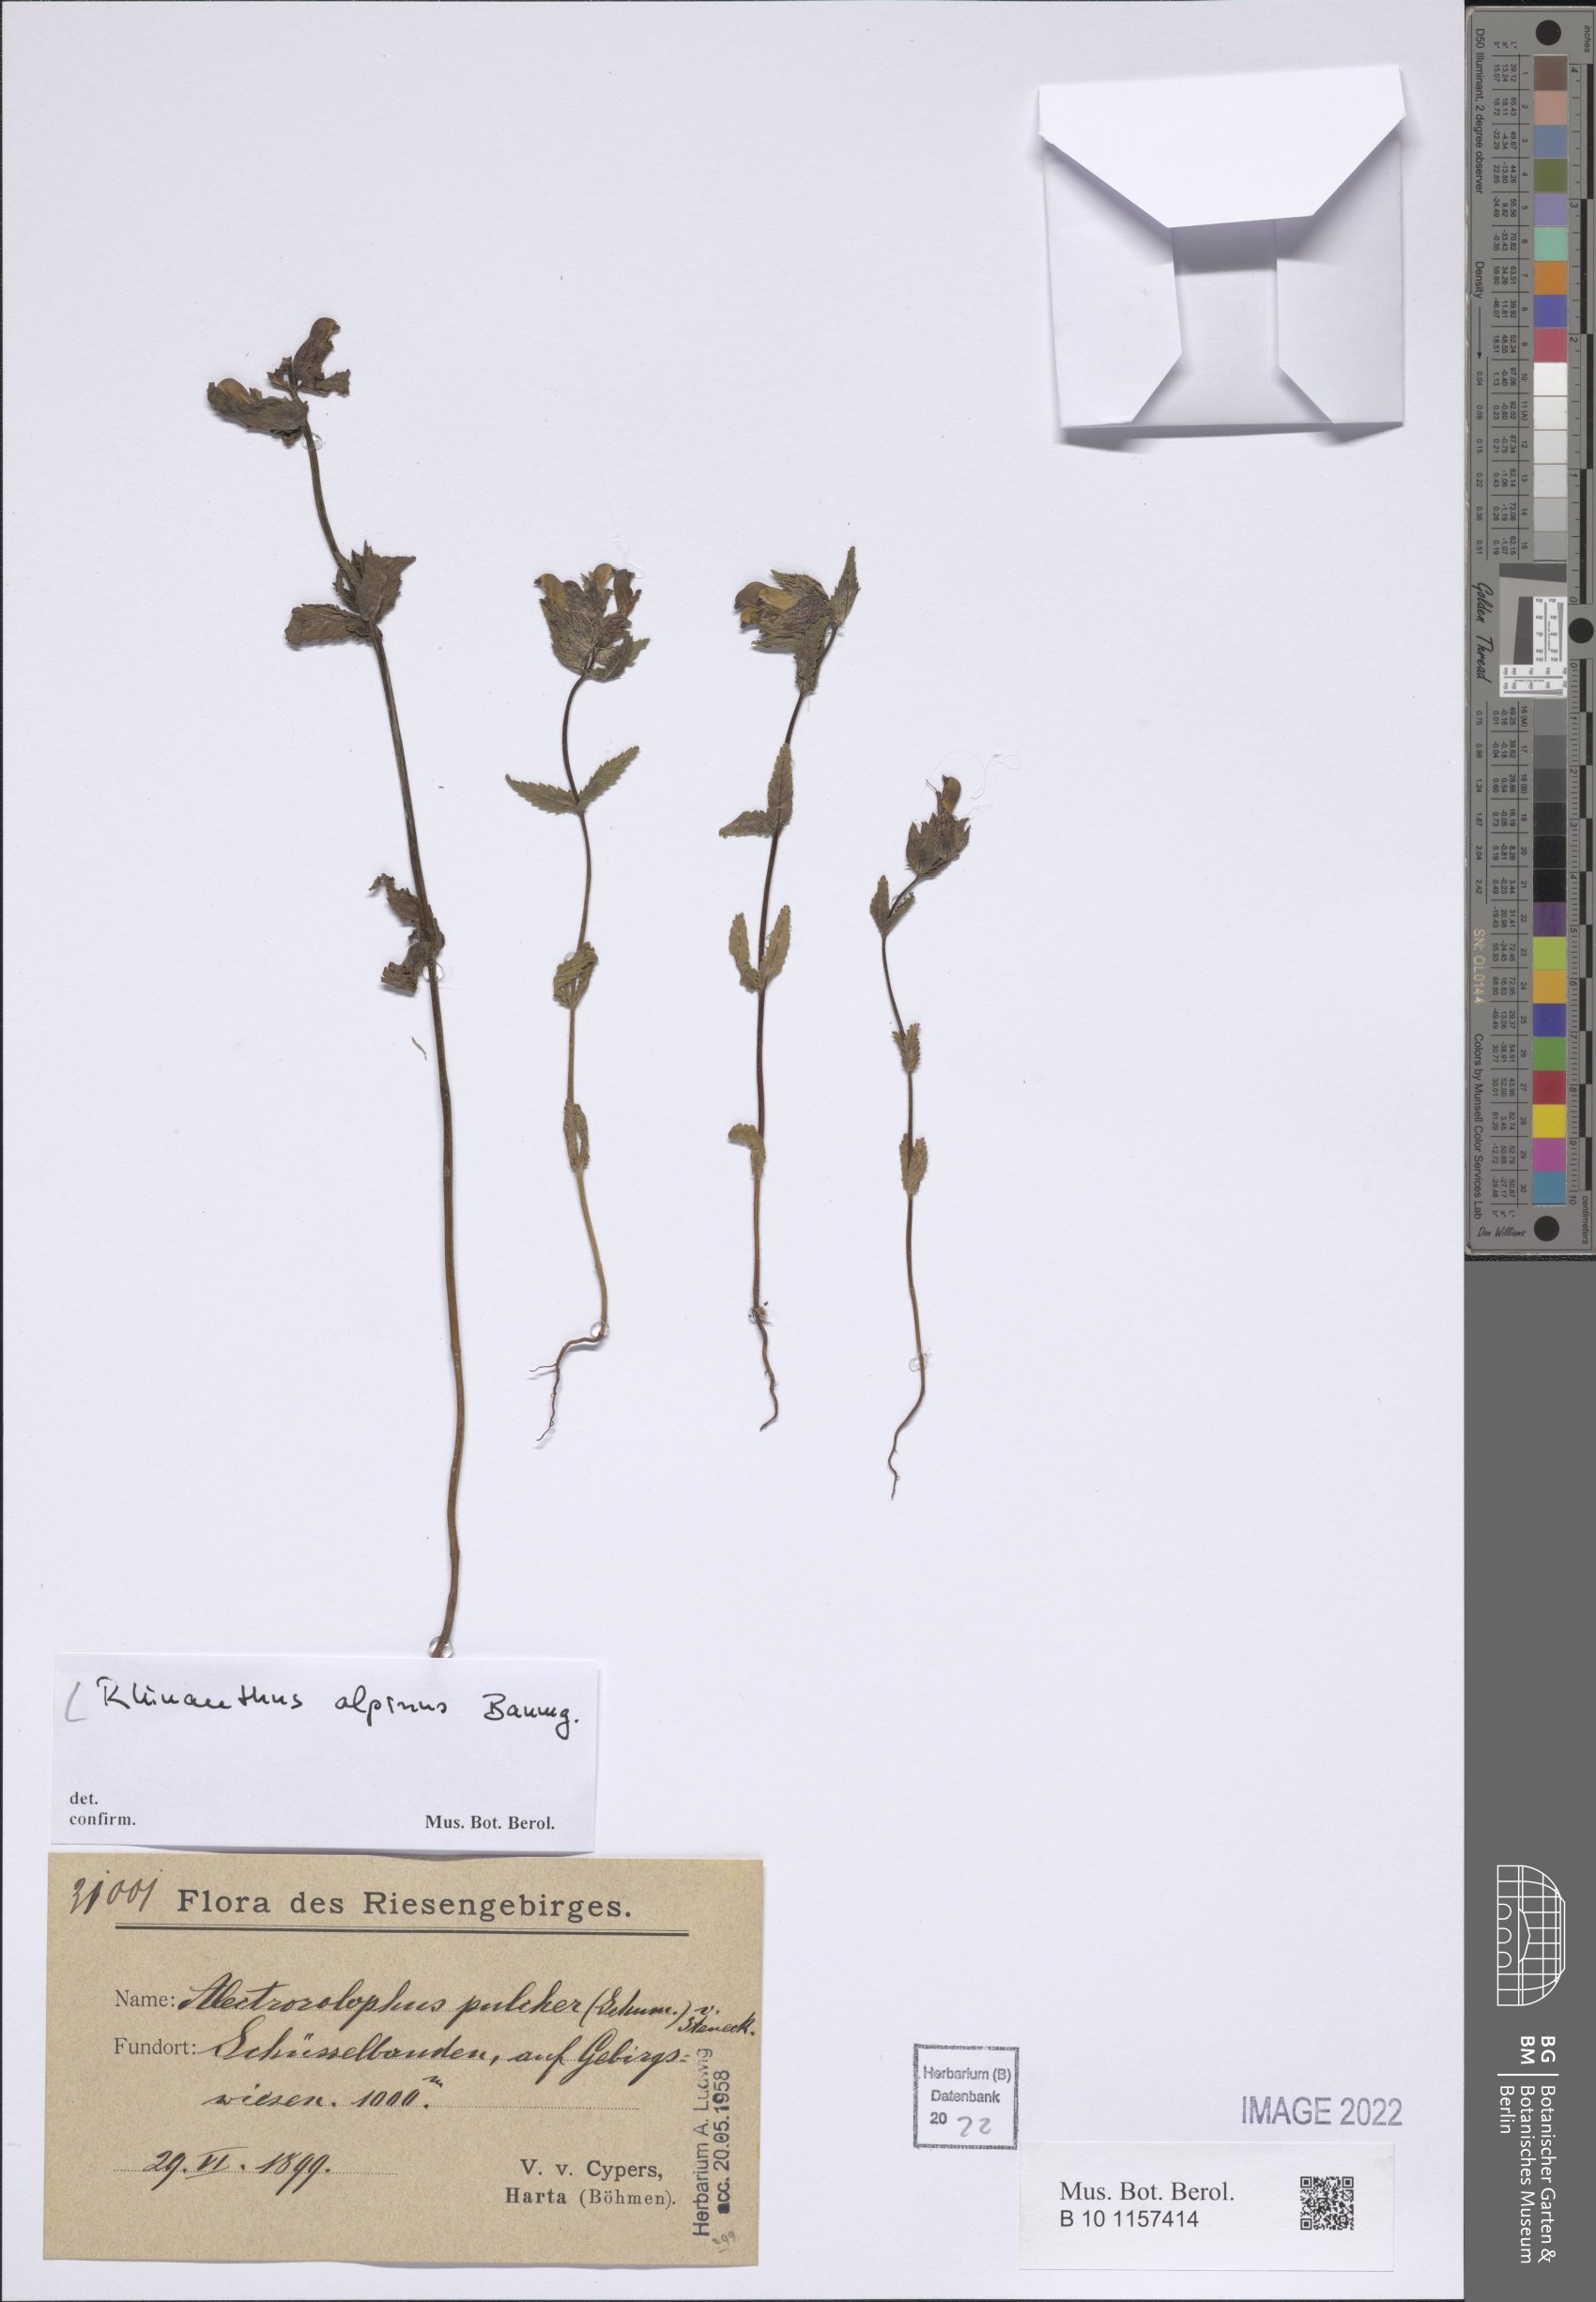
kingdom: Plantae
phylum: Tracheophyta
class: Magnoliopsida
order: Lamiales
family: Orobanchaceae
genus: Rhinanthus
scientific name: Rhinanthus riphaeus
